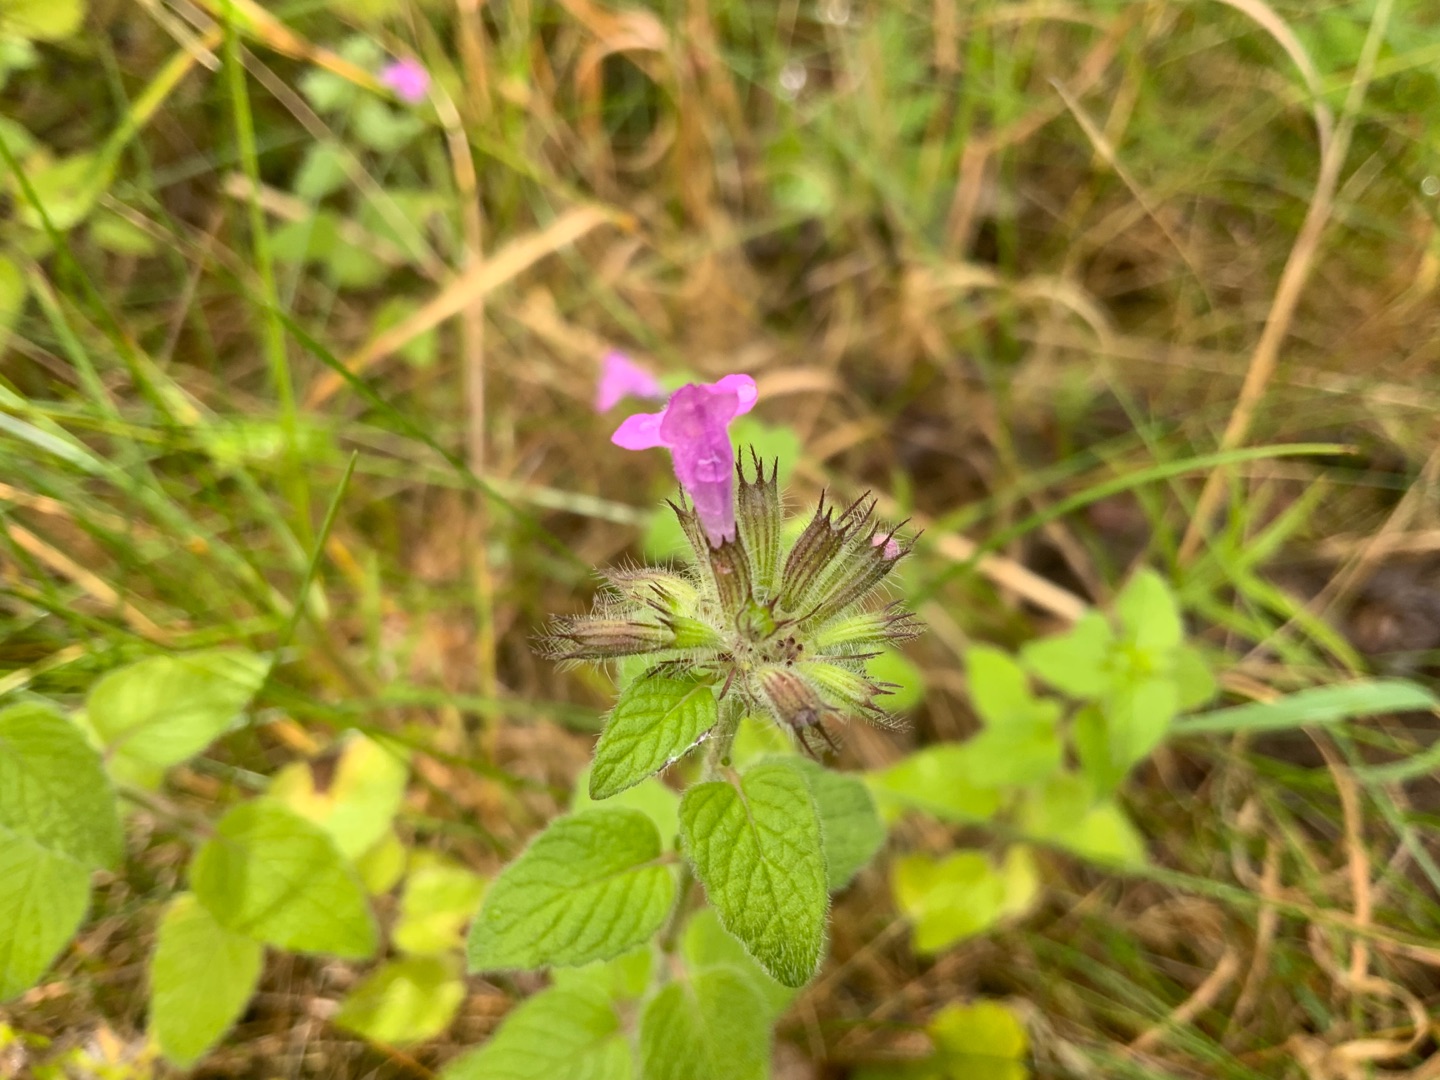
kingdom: Plantae
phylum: Tracheophyta
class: Magnoliopsida
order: Lamiales
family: Lamiaceae
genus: Clinopodium
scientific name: Clinopodium vulgare
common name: Kransbørste
